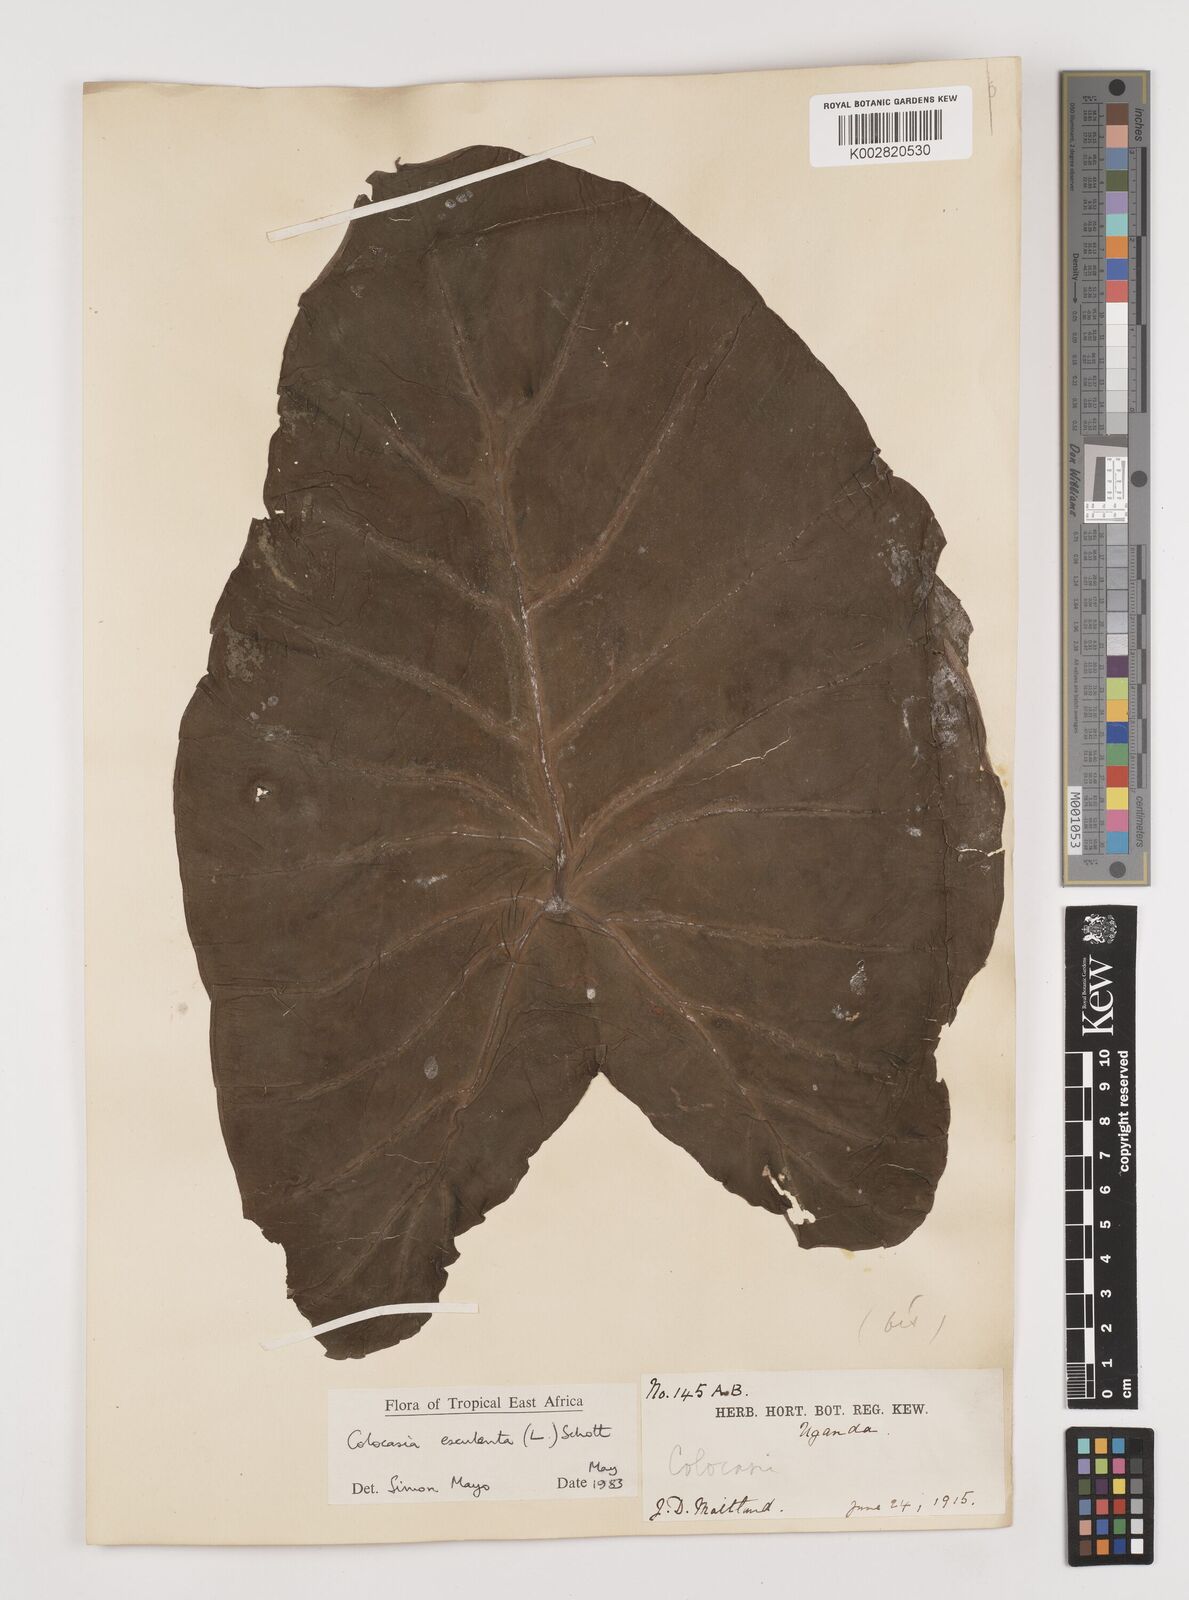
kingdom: Plantae
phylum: Tracheophyta
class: Liliopsida
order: Alismatales
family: Araceae
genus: Colocasia
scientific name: Colocasia esculenta
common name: Taro
